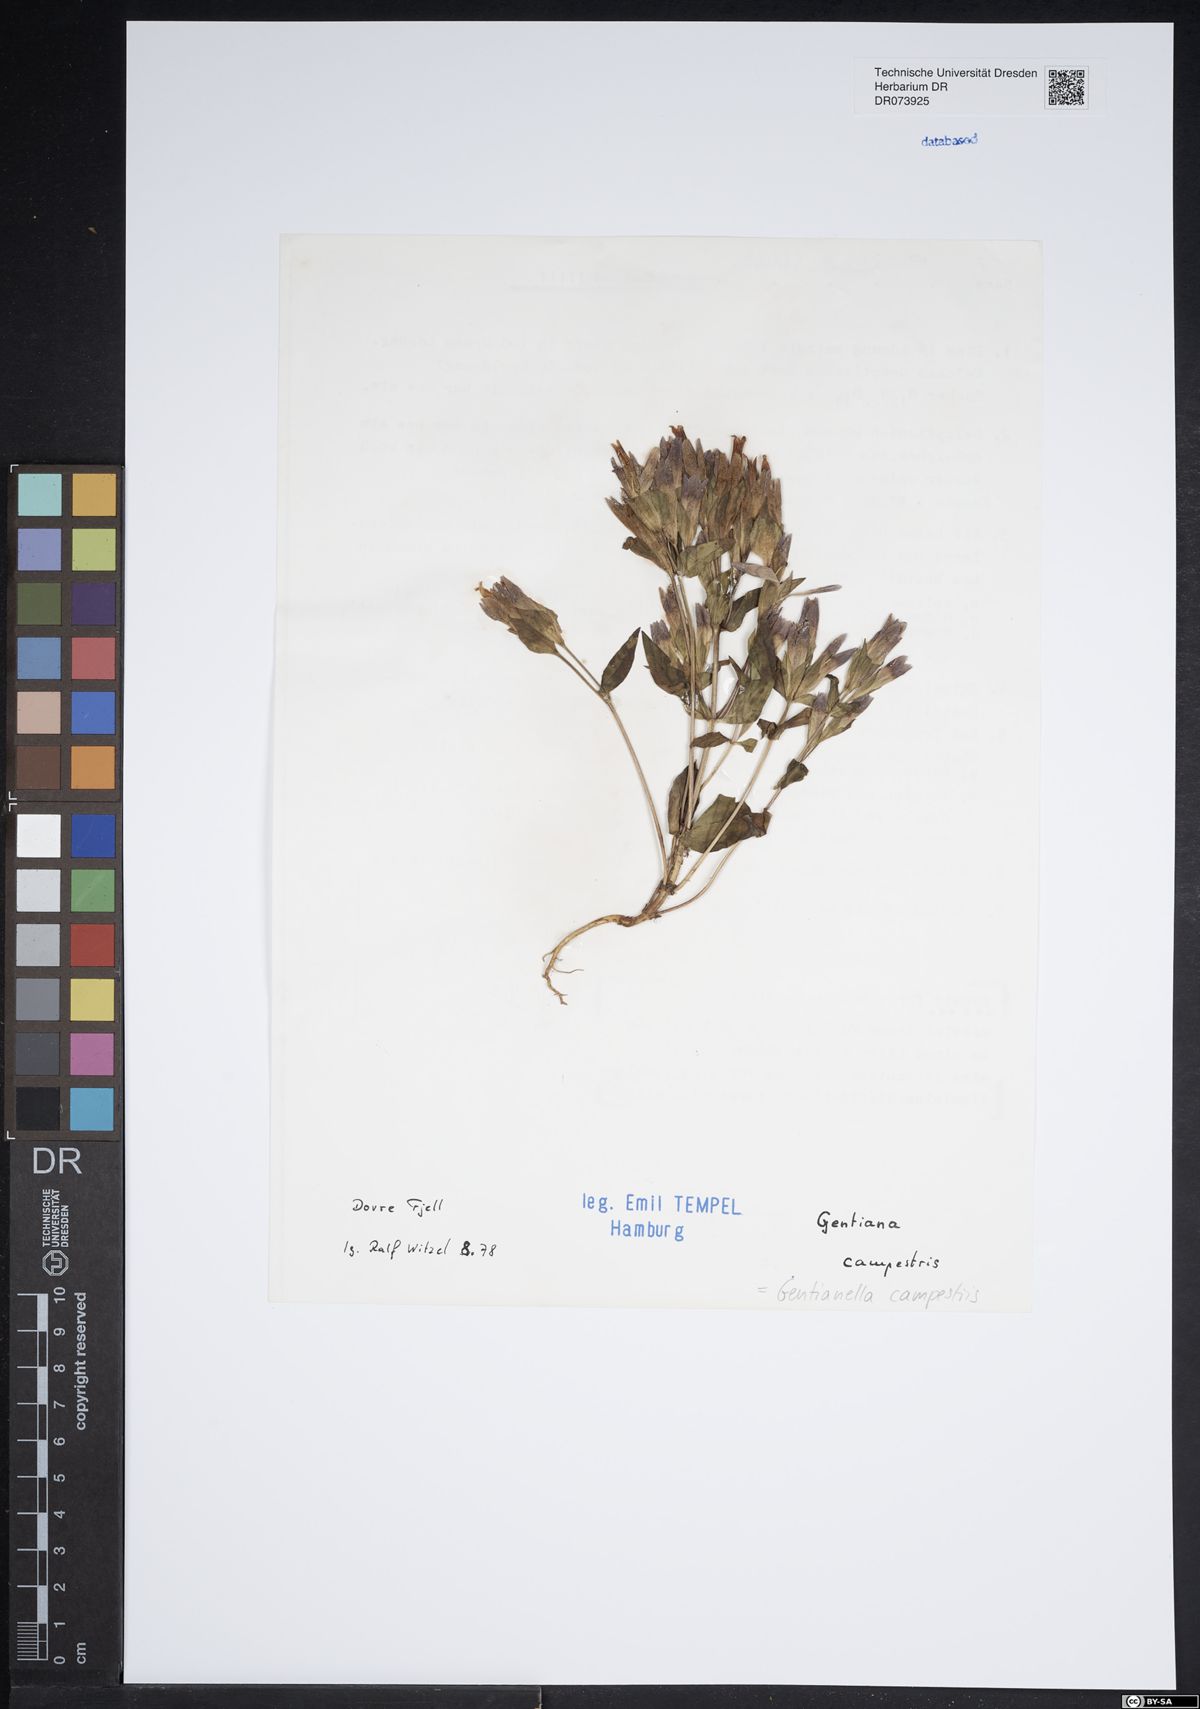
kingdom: Plantae
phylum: Tracheophyta
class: Magnoliopsida
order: Gentianales
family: Gentianaceae
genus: Gentianella
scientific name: Gentianella campestris
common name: Field gentian
